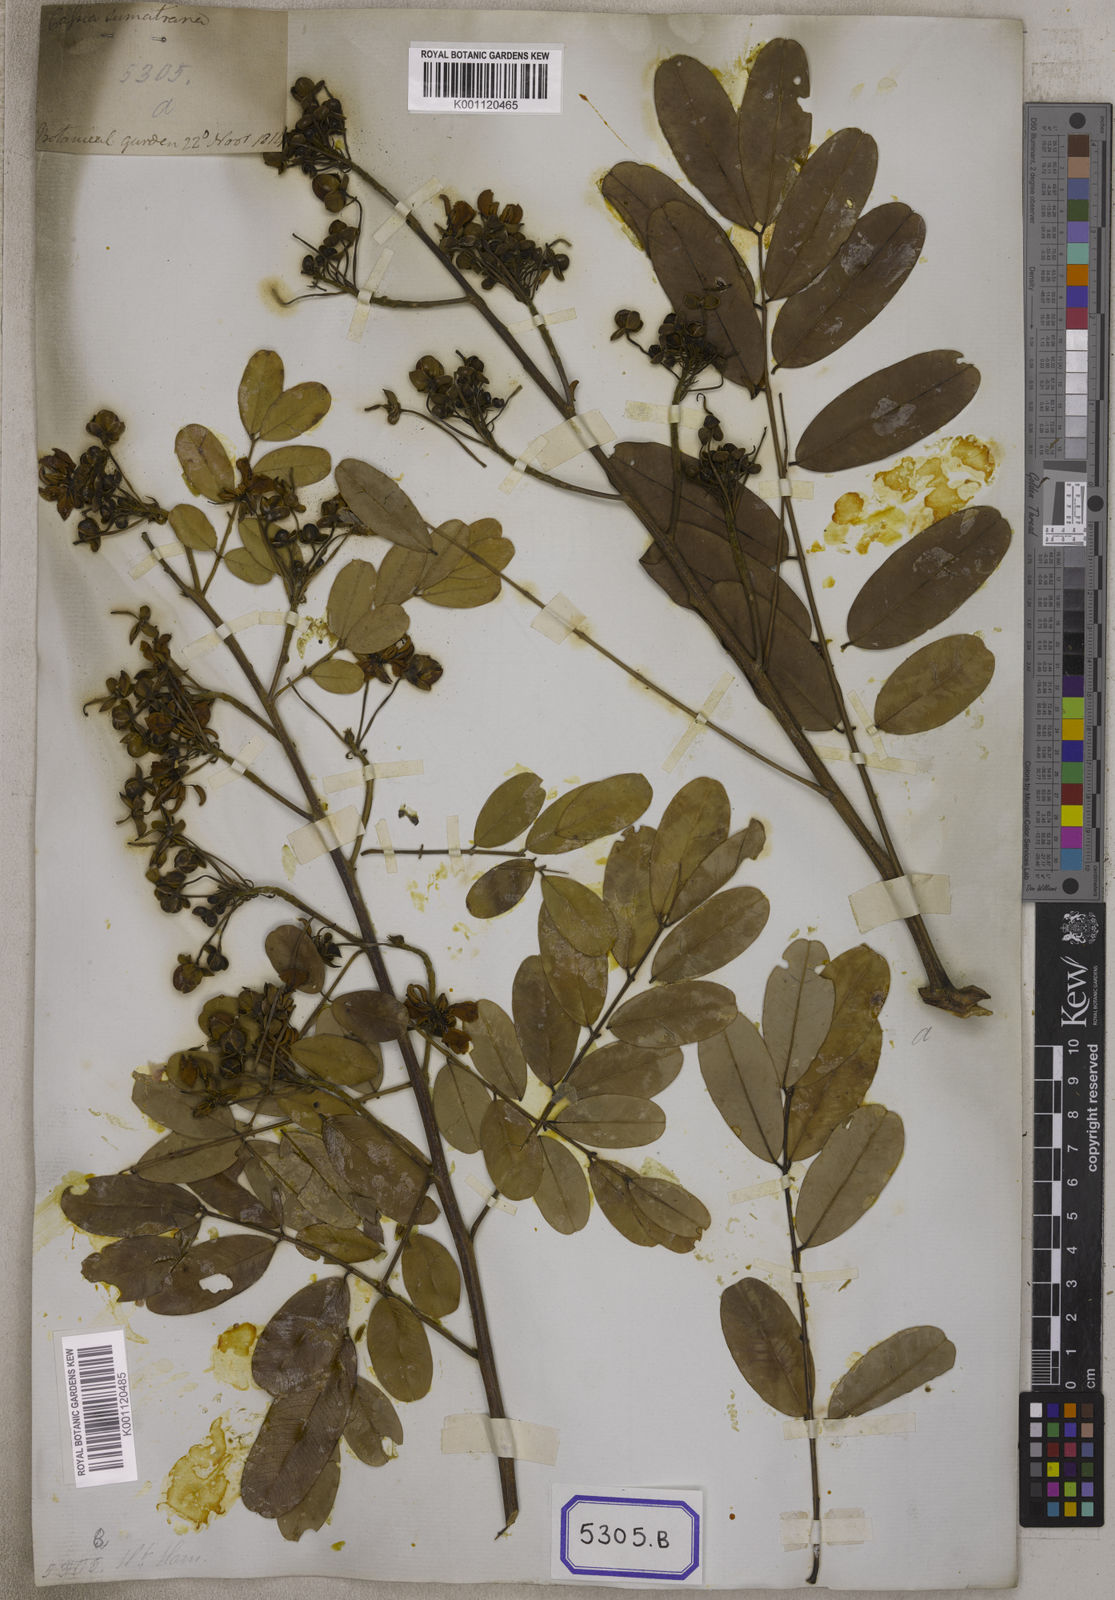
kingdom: Plantae
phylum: Tracheophyta
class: Magnoliopsida
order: Fabales
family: Fabaceae
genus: Cassia
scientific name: Cassia
